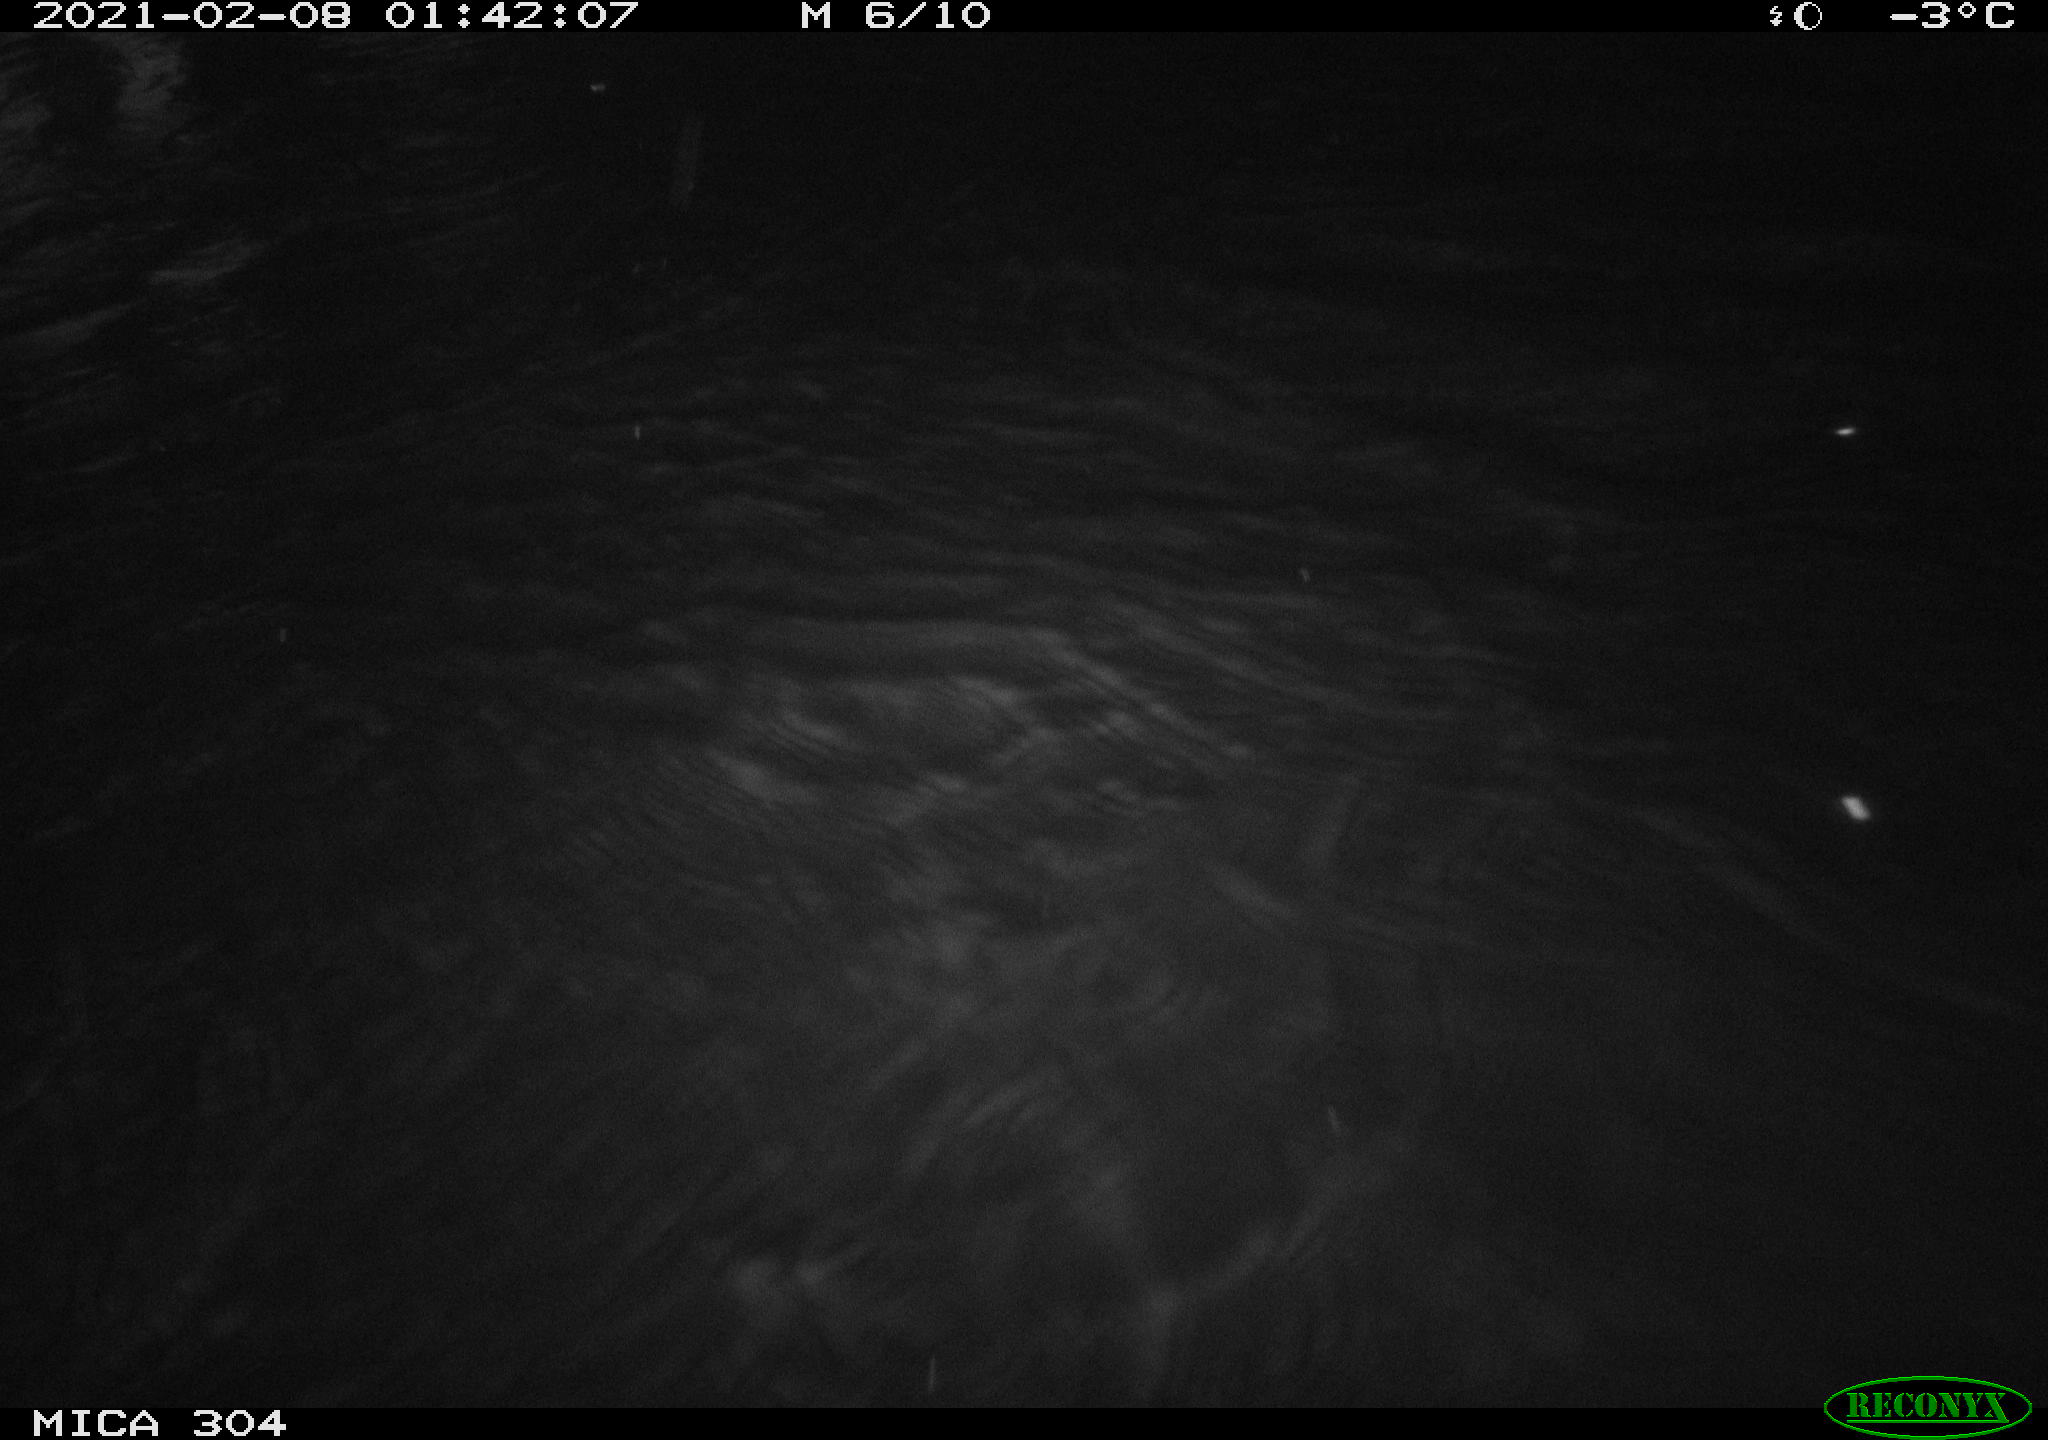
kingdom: Animalia
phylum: Chordata
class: Aves
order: Anseriformes
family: Anatidae
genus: Anas
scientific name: Anas platyrhynchos
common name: Mallard
